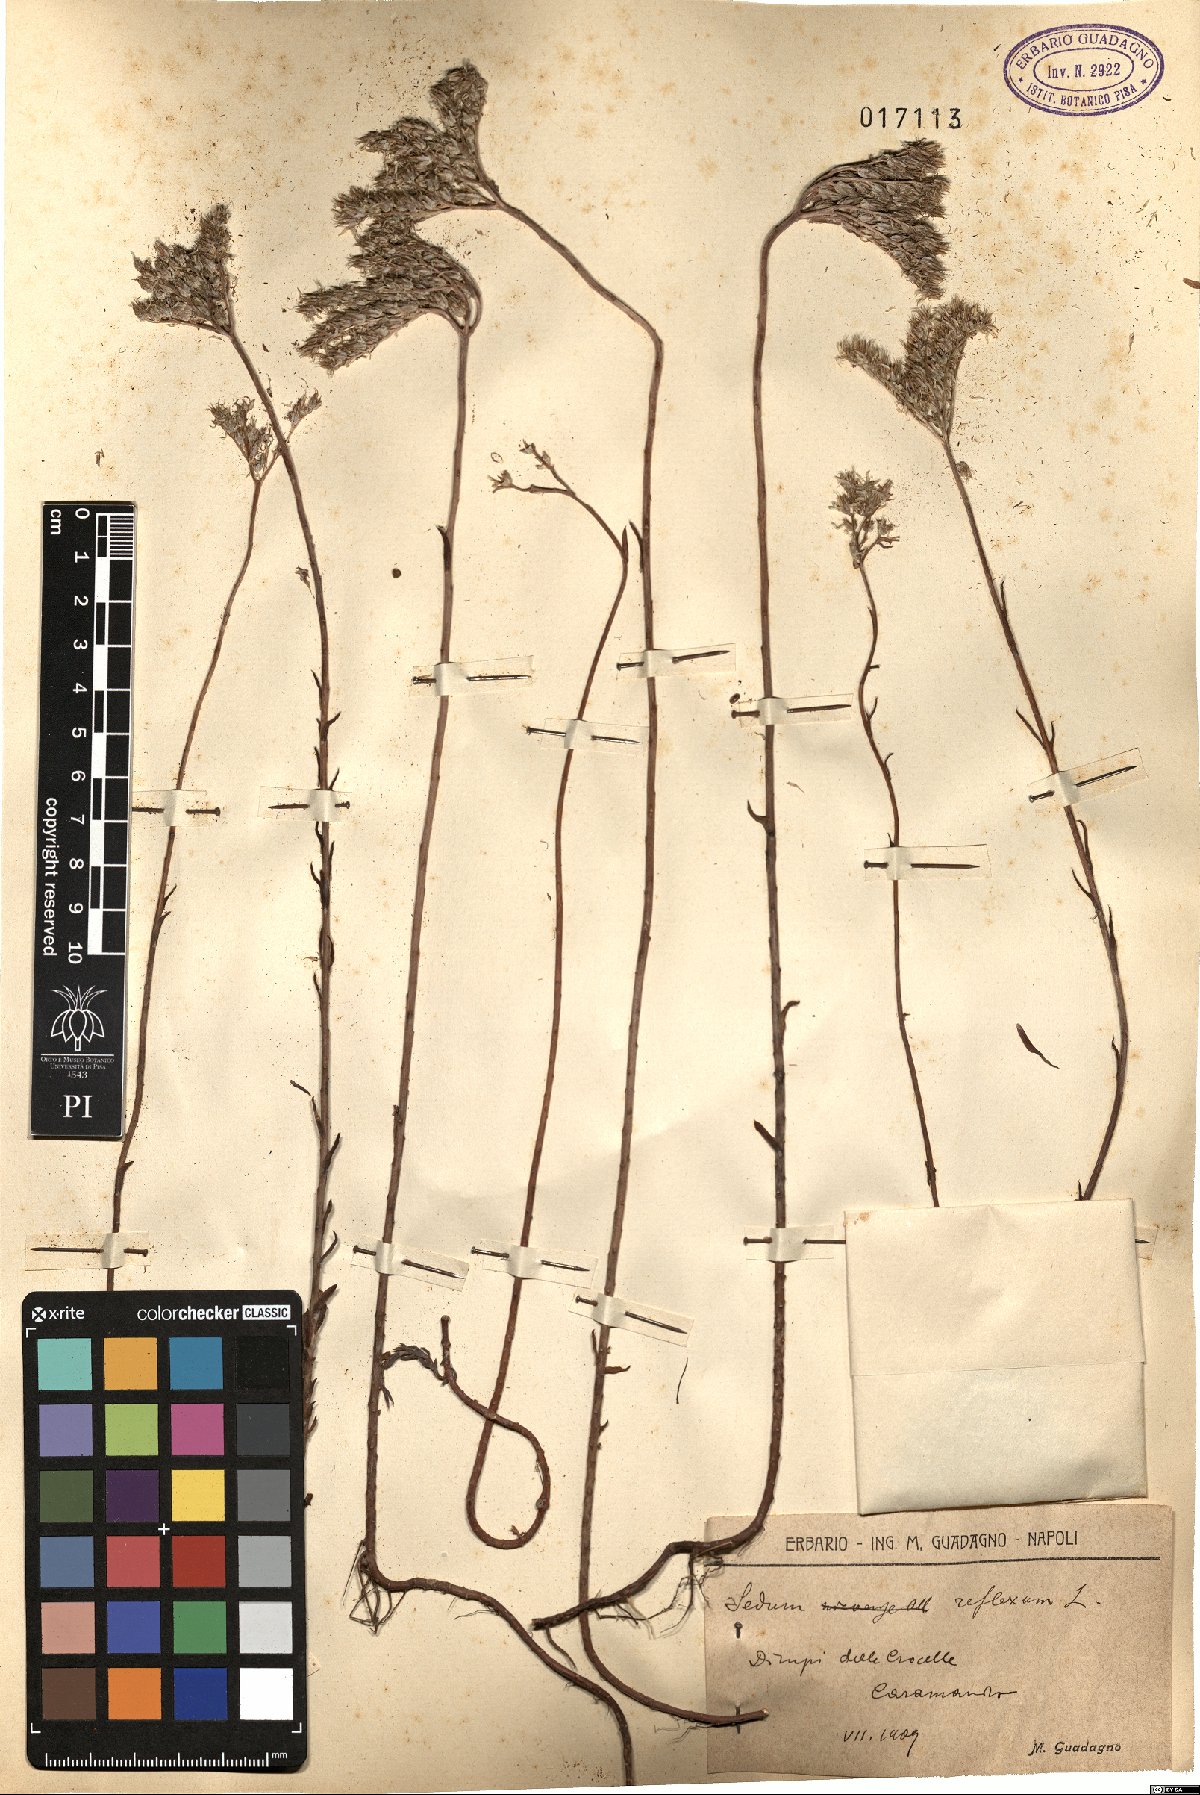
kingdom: Plantae
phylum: Tracheophyta
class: Magnoliopsida
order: Saxifragales
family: Crassulaceae
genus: Petrosedum
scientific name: Petrosedum rupestre
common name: Jenny's stonecrop
